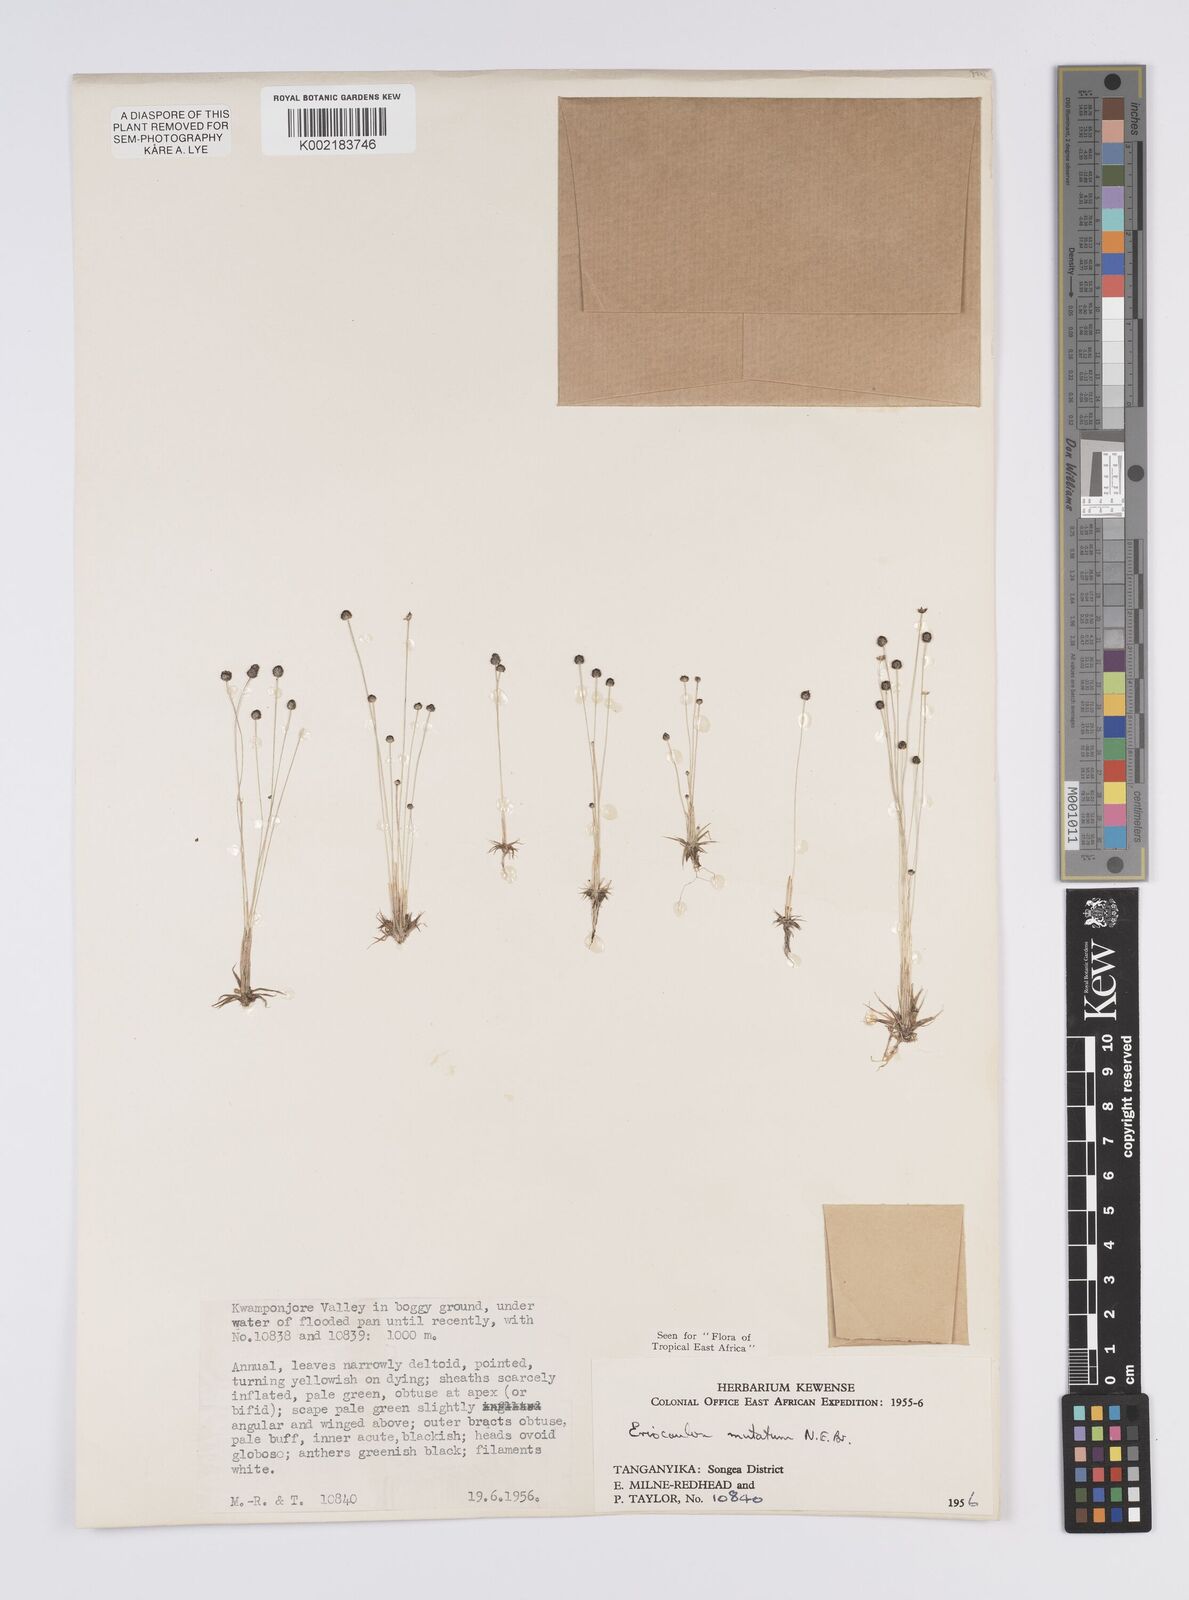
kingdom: Plantae
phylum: Tracheophyta
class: Liliopsida
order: Poales
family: Eriocaulaceae
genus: Eriocaulon
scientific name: Eriocaulon mutatum
